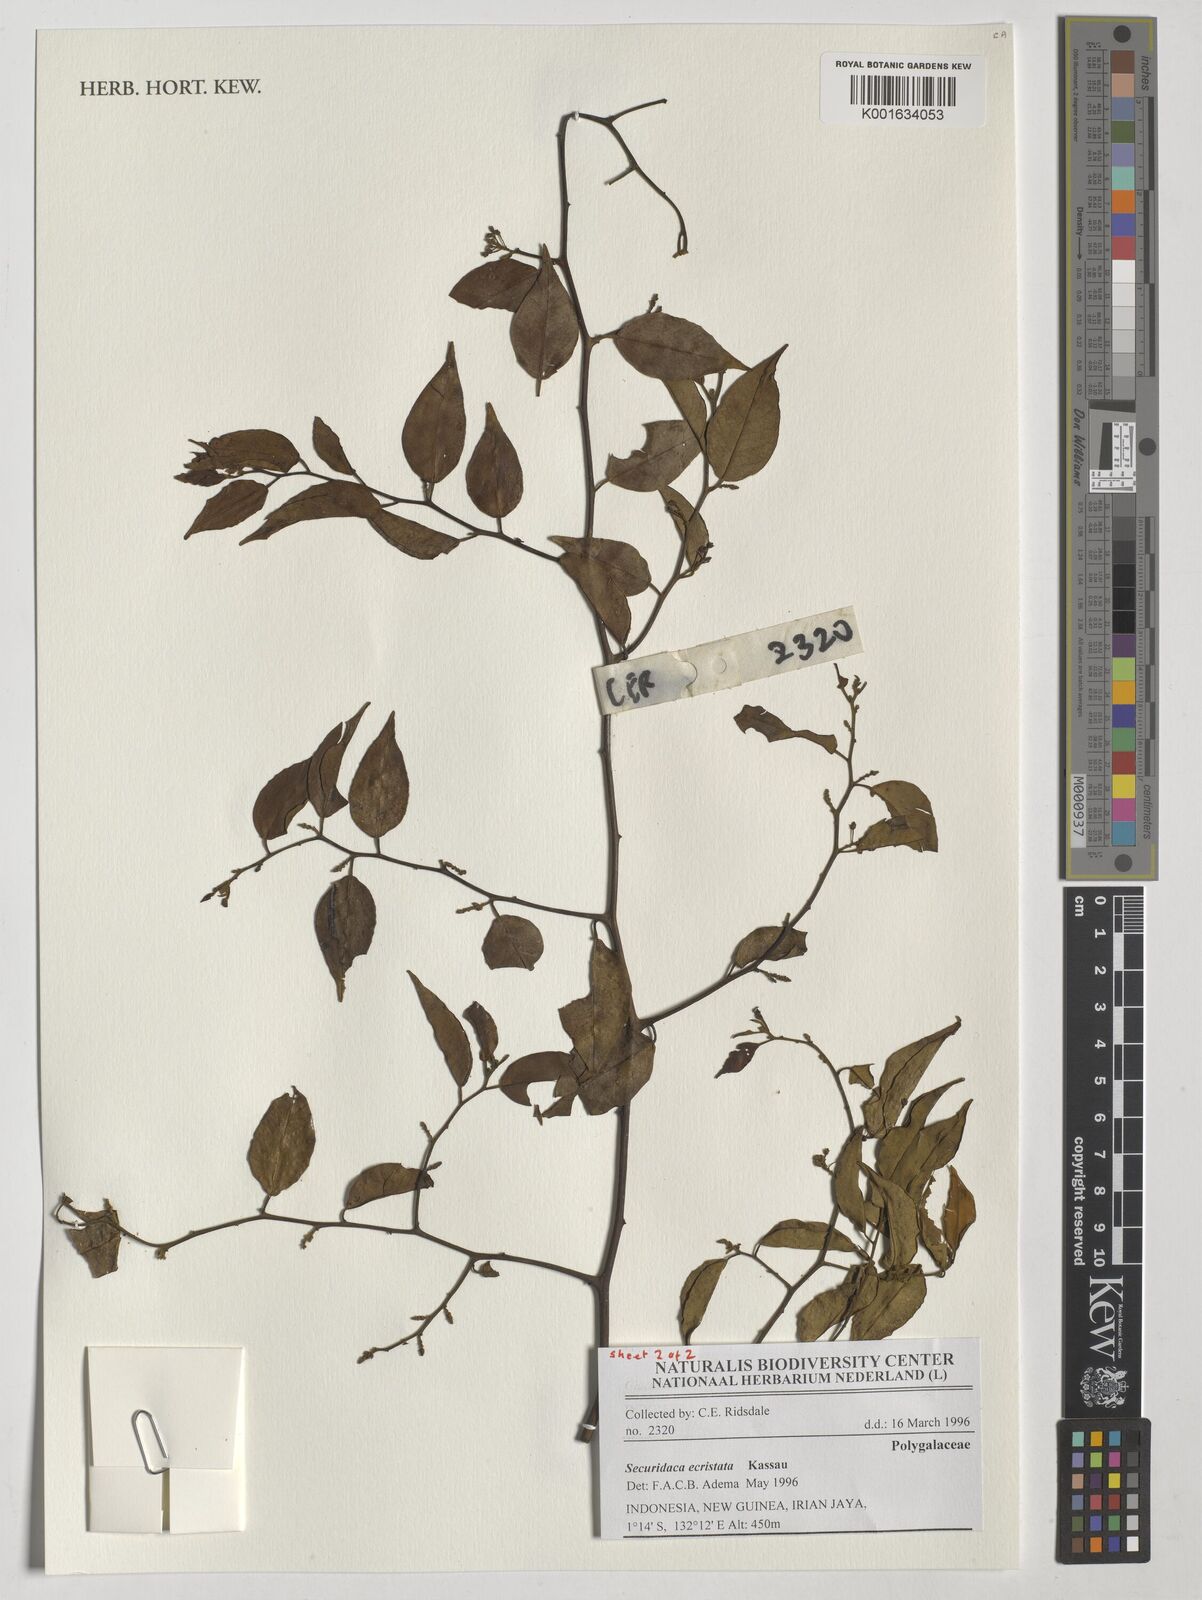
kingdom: Plantae
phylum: Tracheophyta
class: Magnoliopsida
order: Fabales
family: Polygalaceae
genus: Securidaca
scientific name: Securidaca inappendiculata
